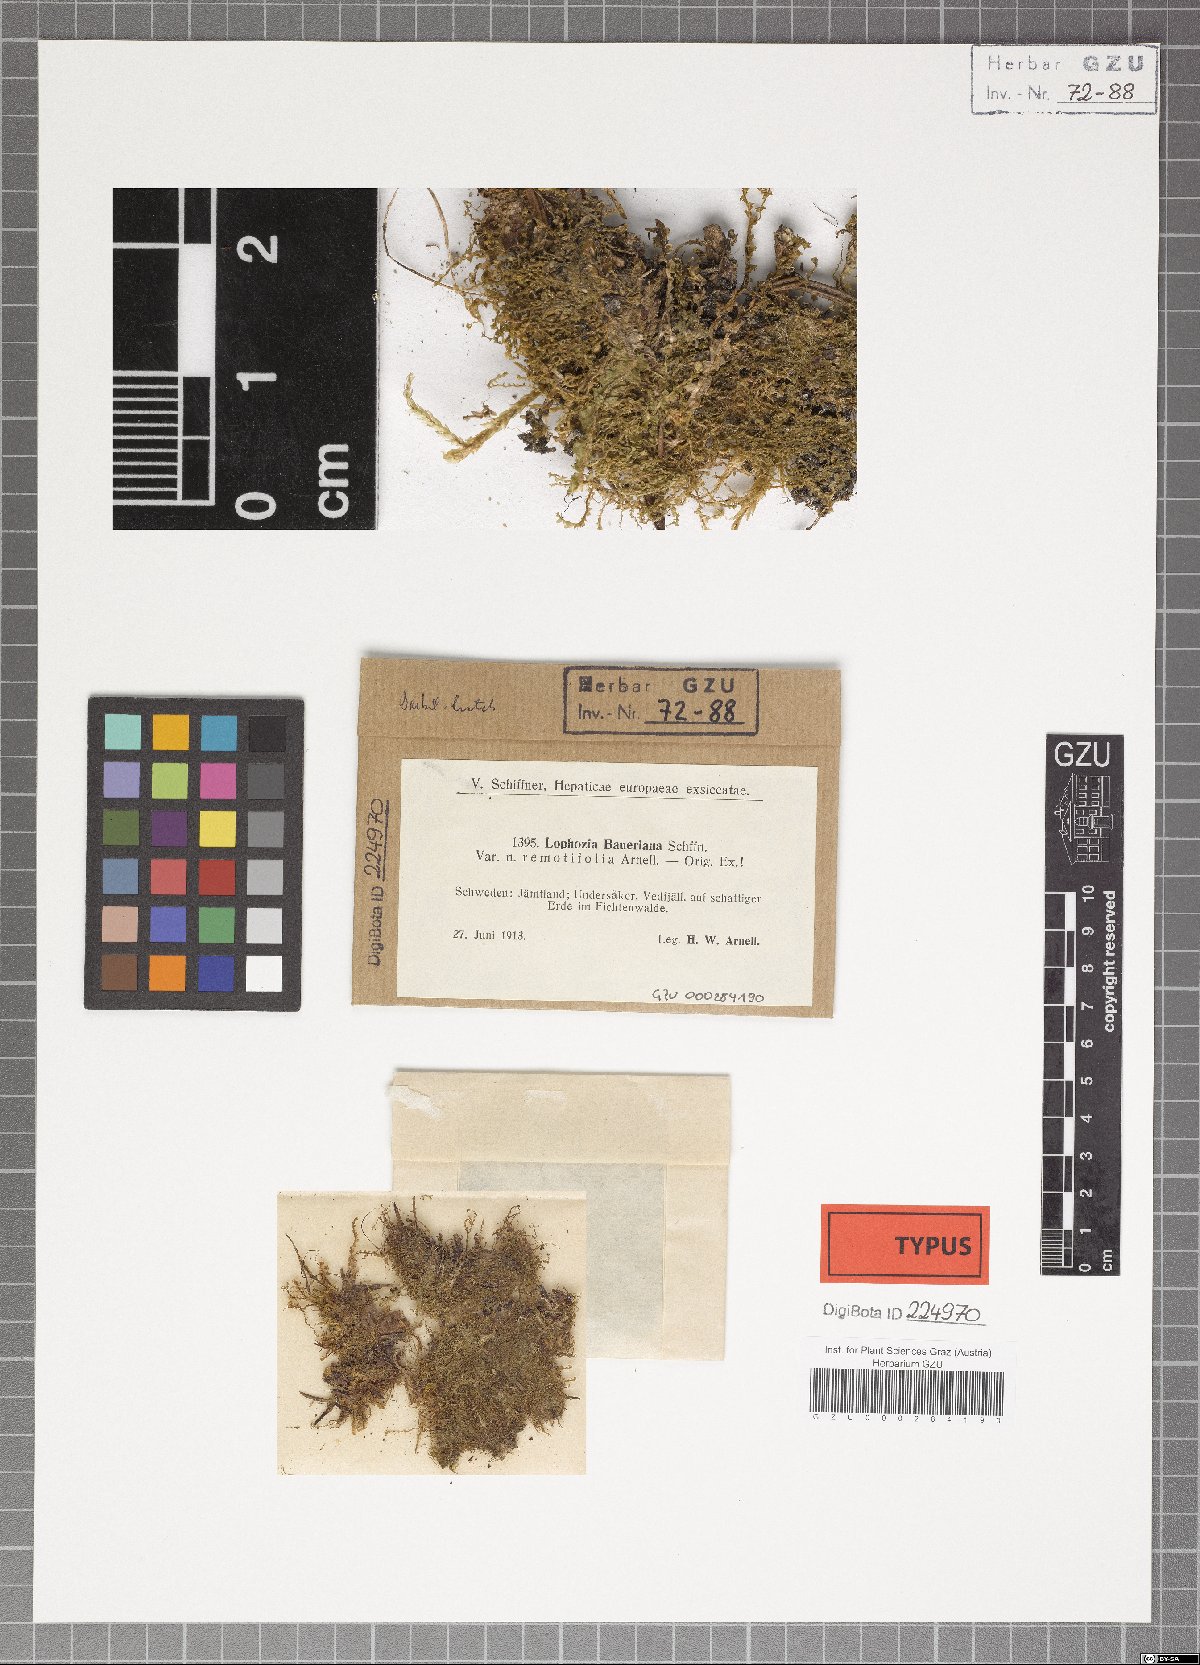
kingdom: Plantae
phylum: Marchantiophyta
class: Jungermanniopsida
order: Jungermanniales
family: Anastrophyllaceae
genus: Barbilophozia
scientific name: Barbilophozia hatcheri
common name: Hatcher s pawwort
